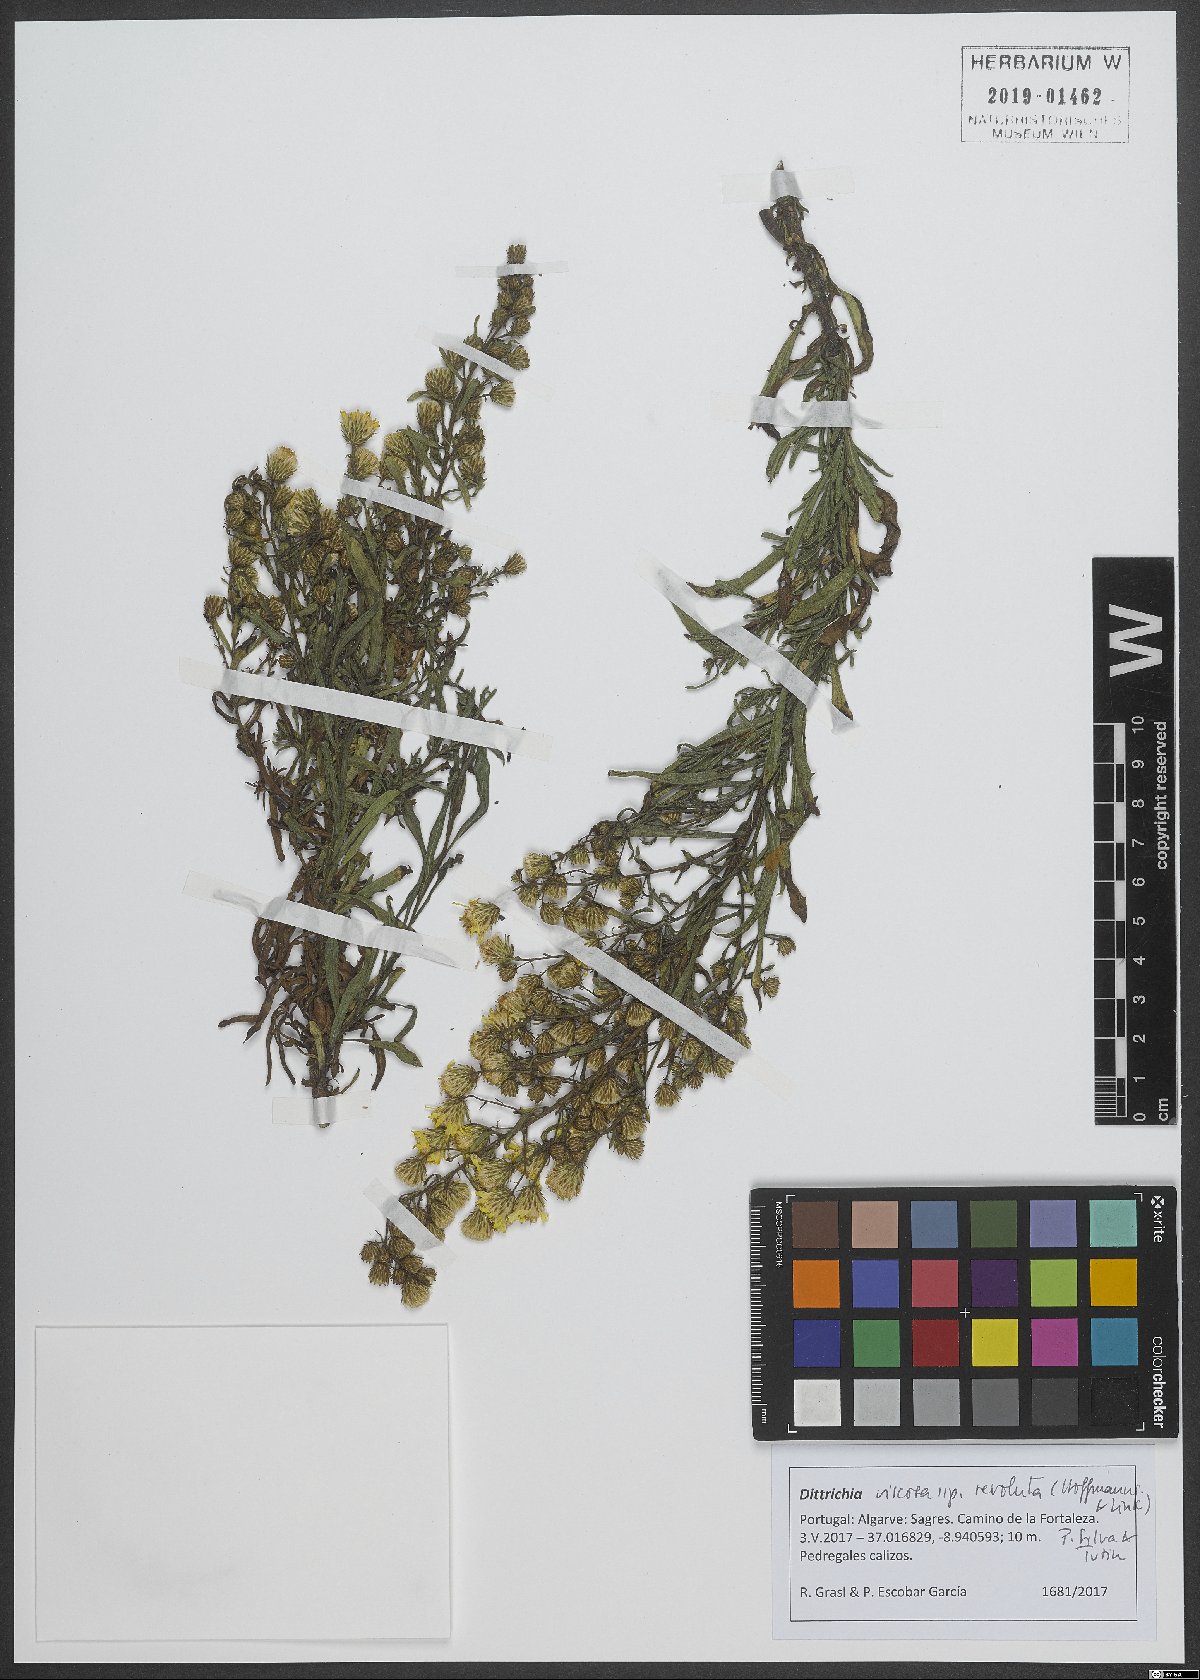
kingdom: Plantae
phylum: Tracheophyta
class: Magnoliopsida
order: Asterales
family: Asteraceae
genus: Dittrichia
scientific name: Dittrichia viscosa
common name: Woody fleabane
